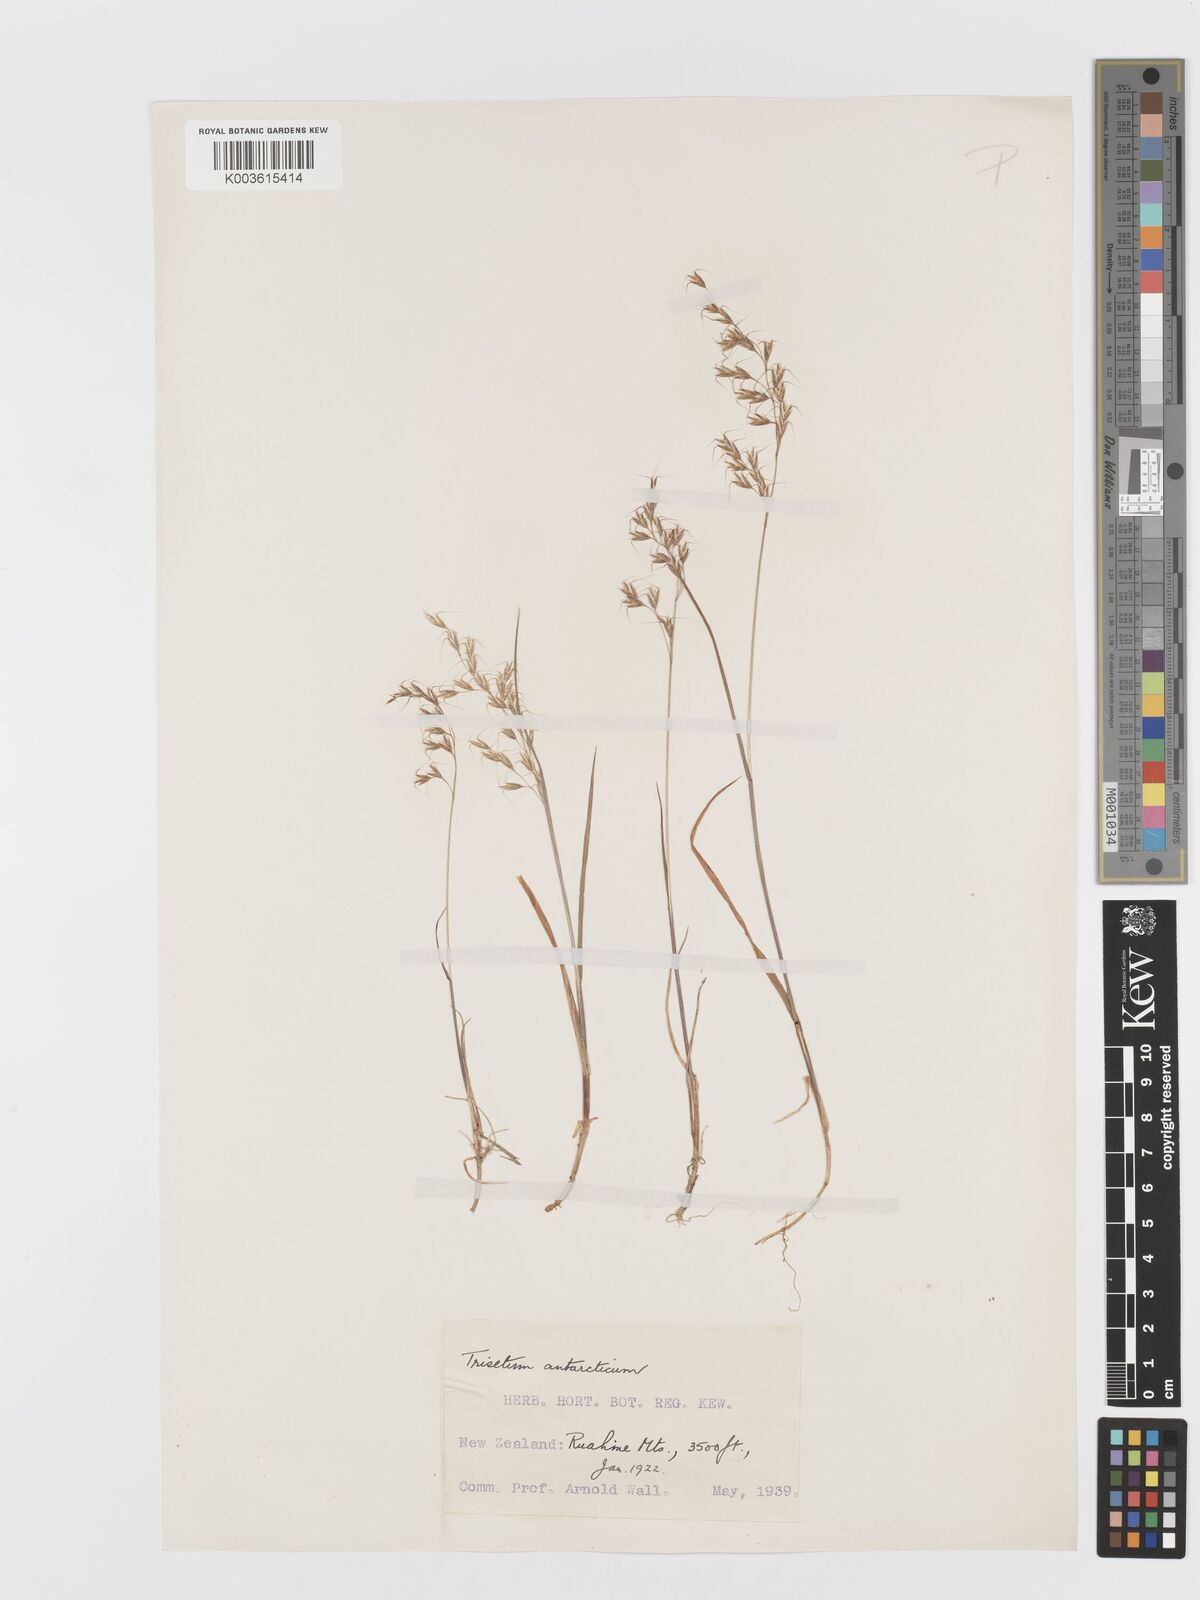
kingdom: Plantae
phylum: Tracheophyta
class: Liliopsida
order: Poales
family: Poaceae
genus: Koeleria
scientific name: Koeleria antarctica
